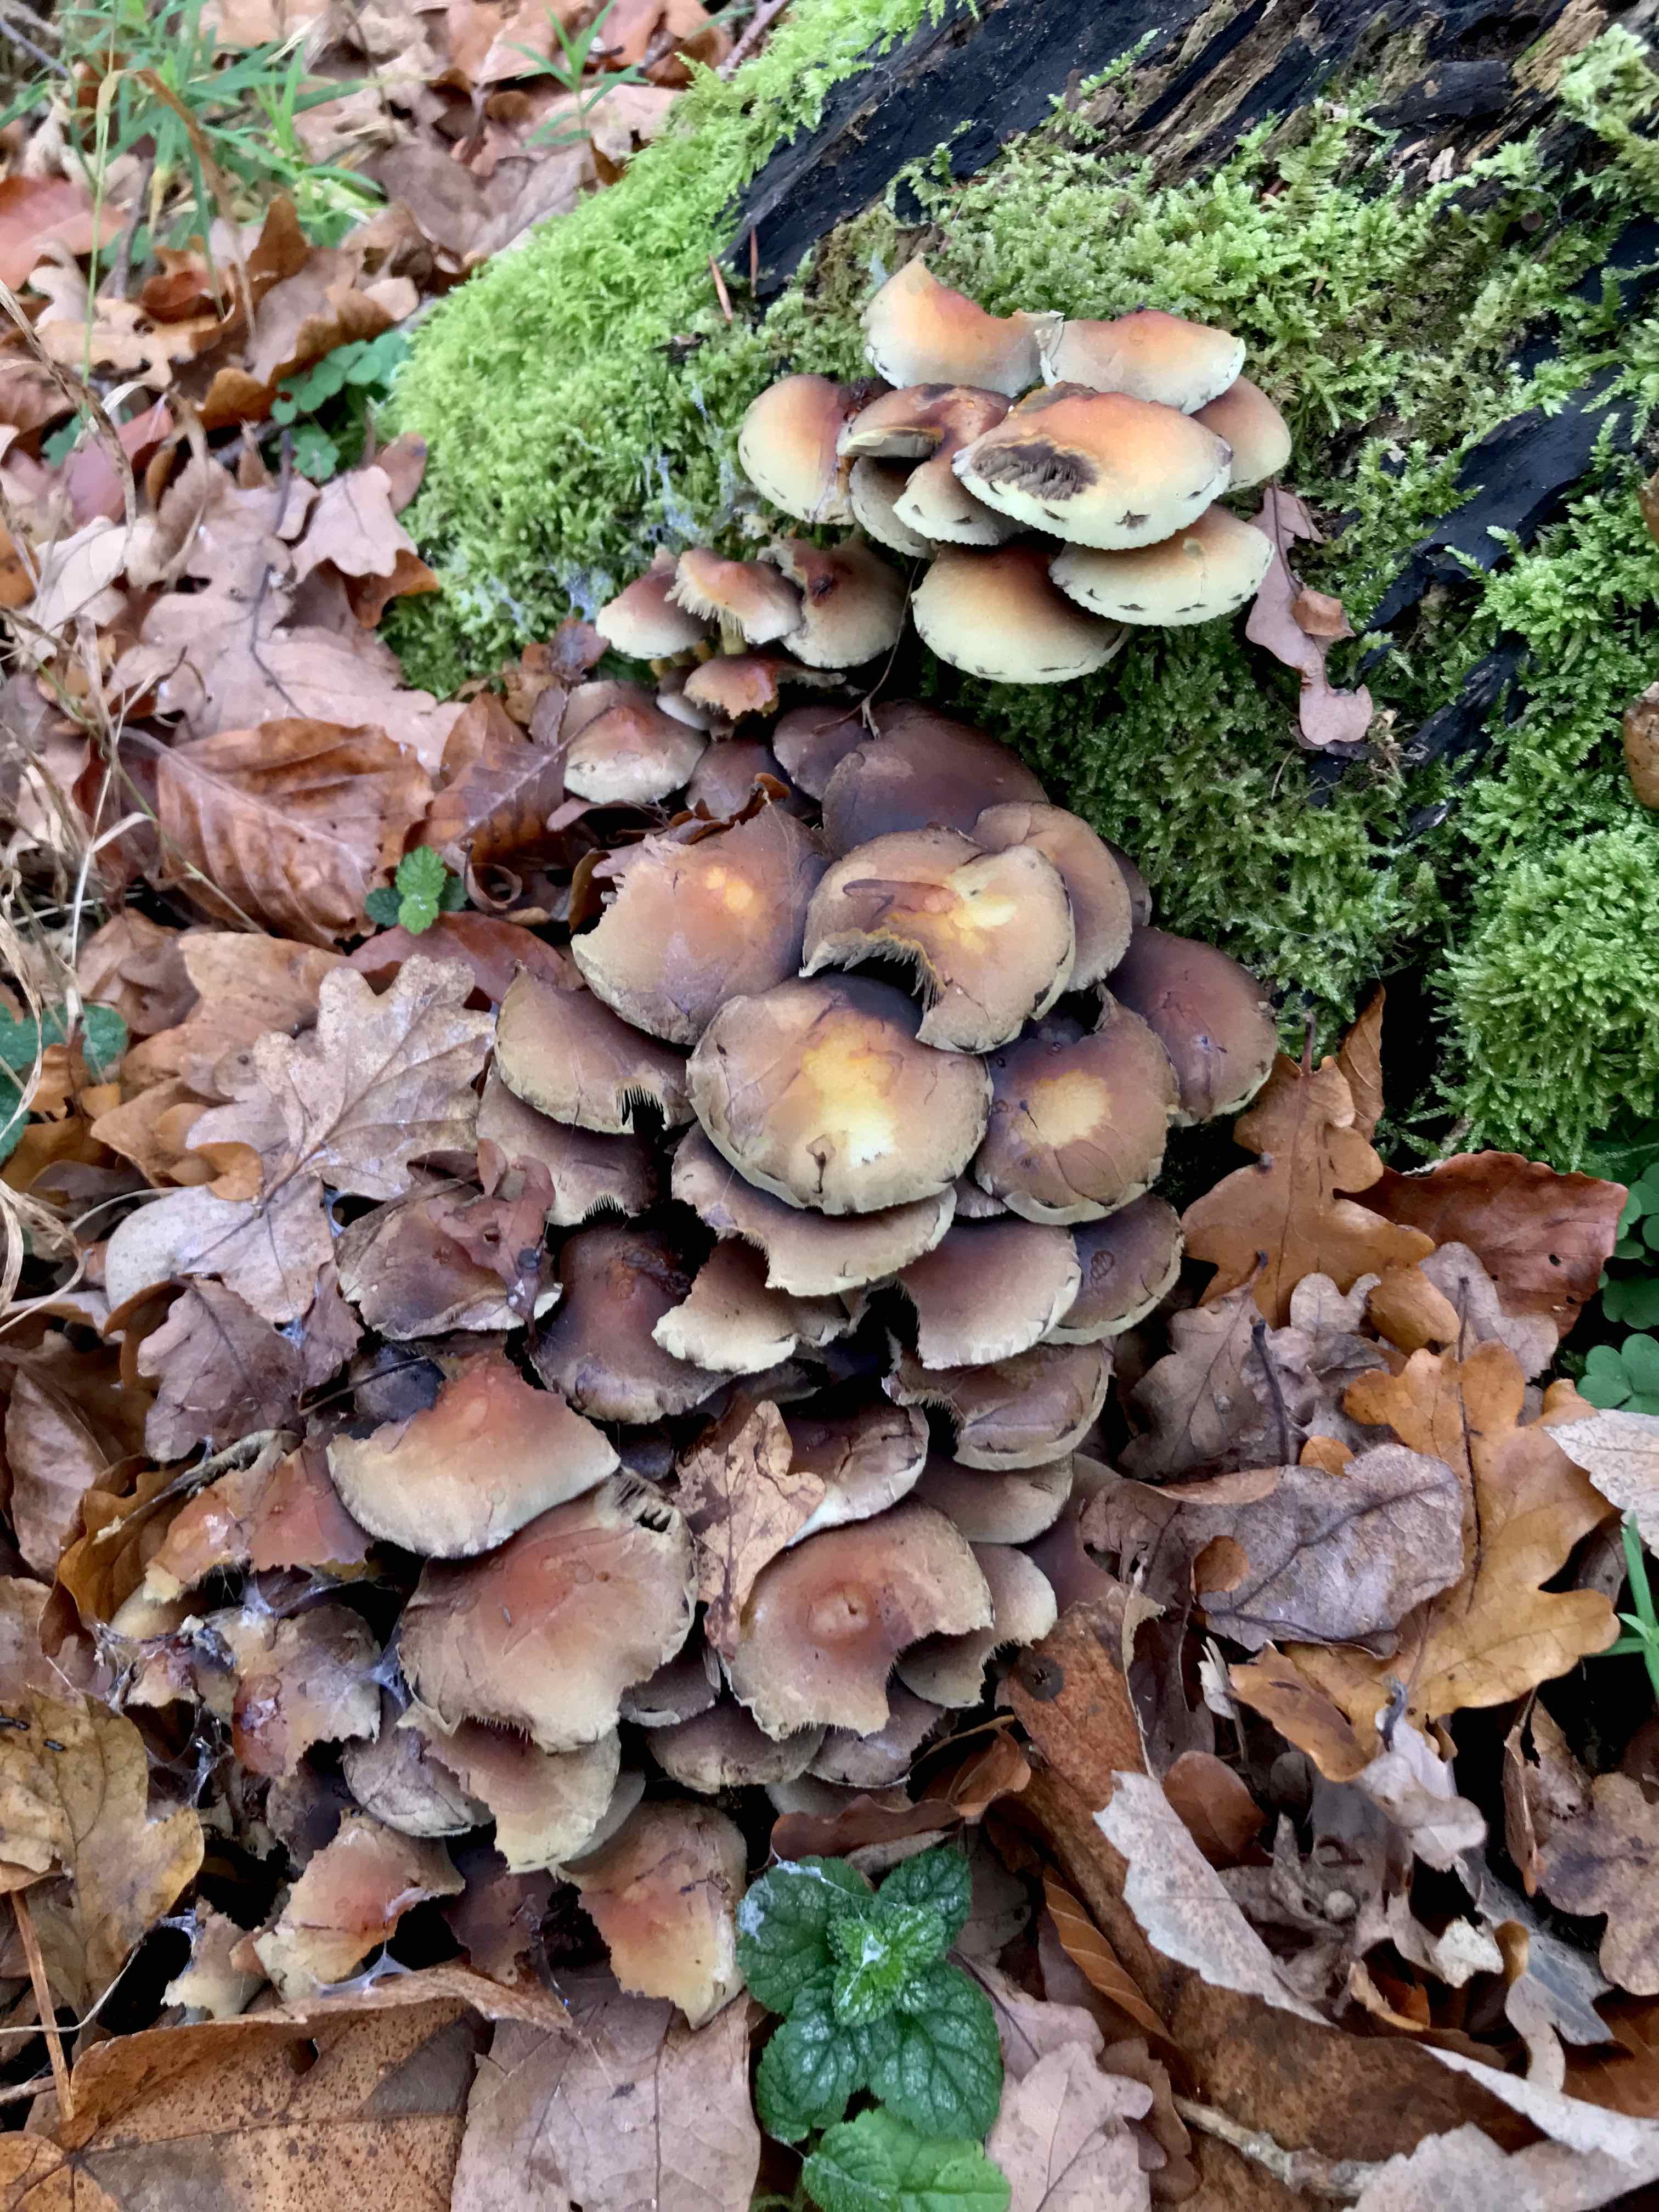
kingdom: Fungi
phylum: Basidiomycota
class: Agaricomycetes
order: Agaricales
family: Strophariaceae
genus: Hypholoma
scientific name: Hypholoma fasciculare
